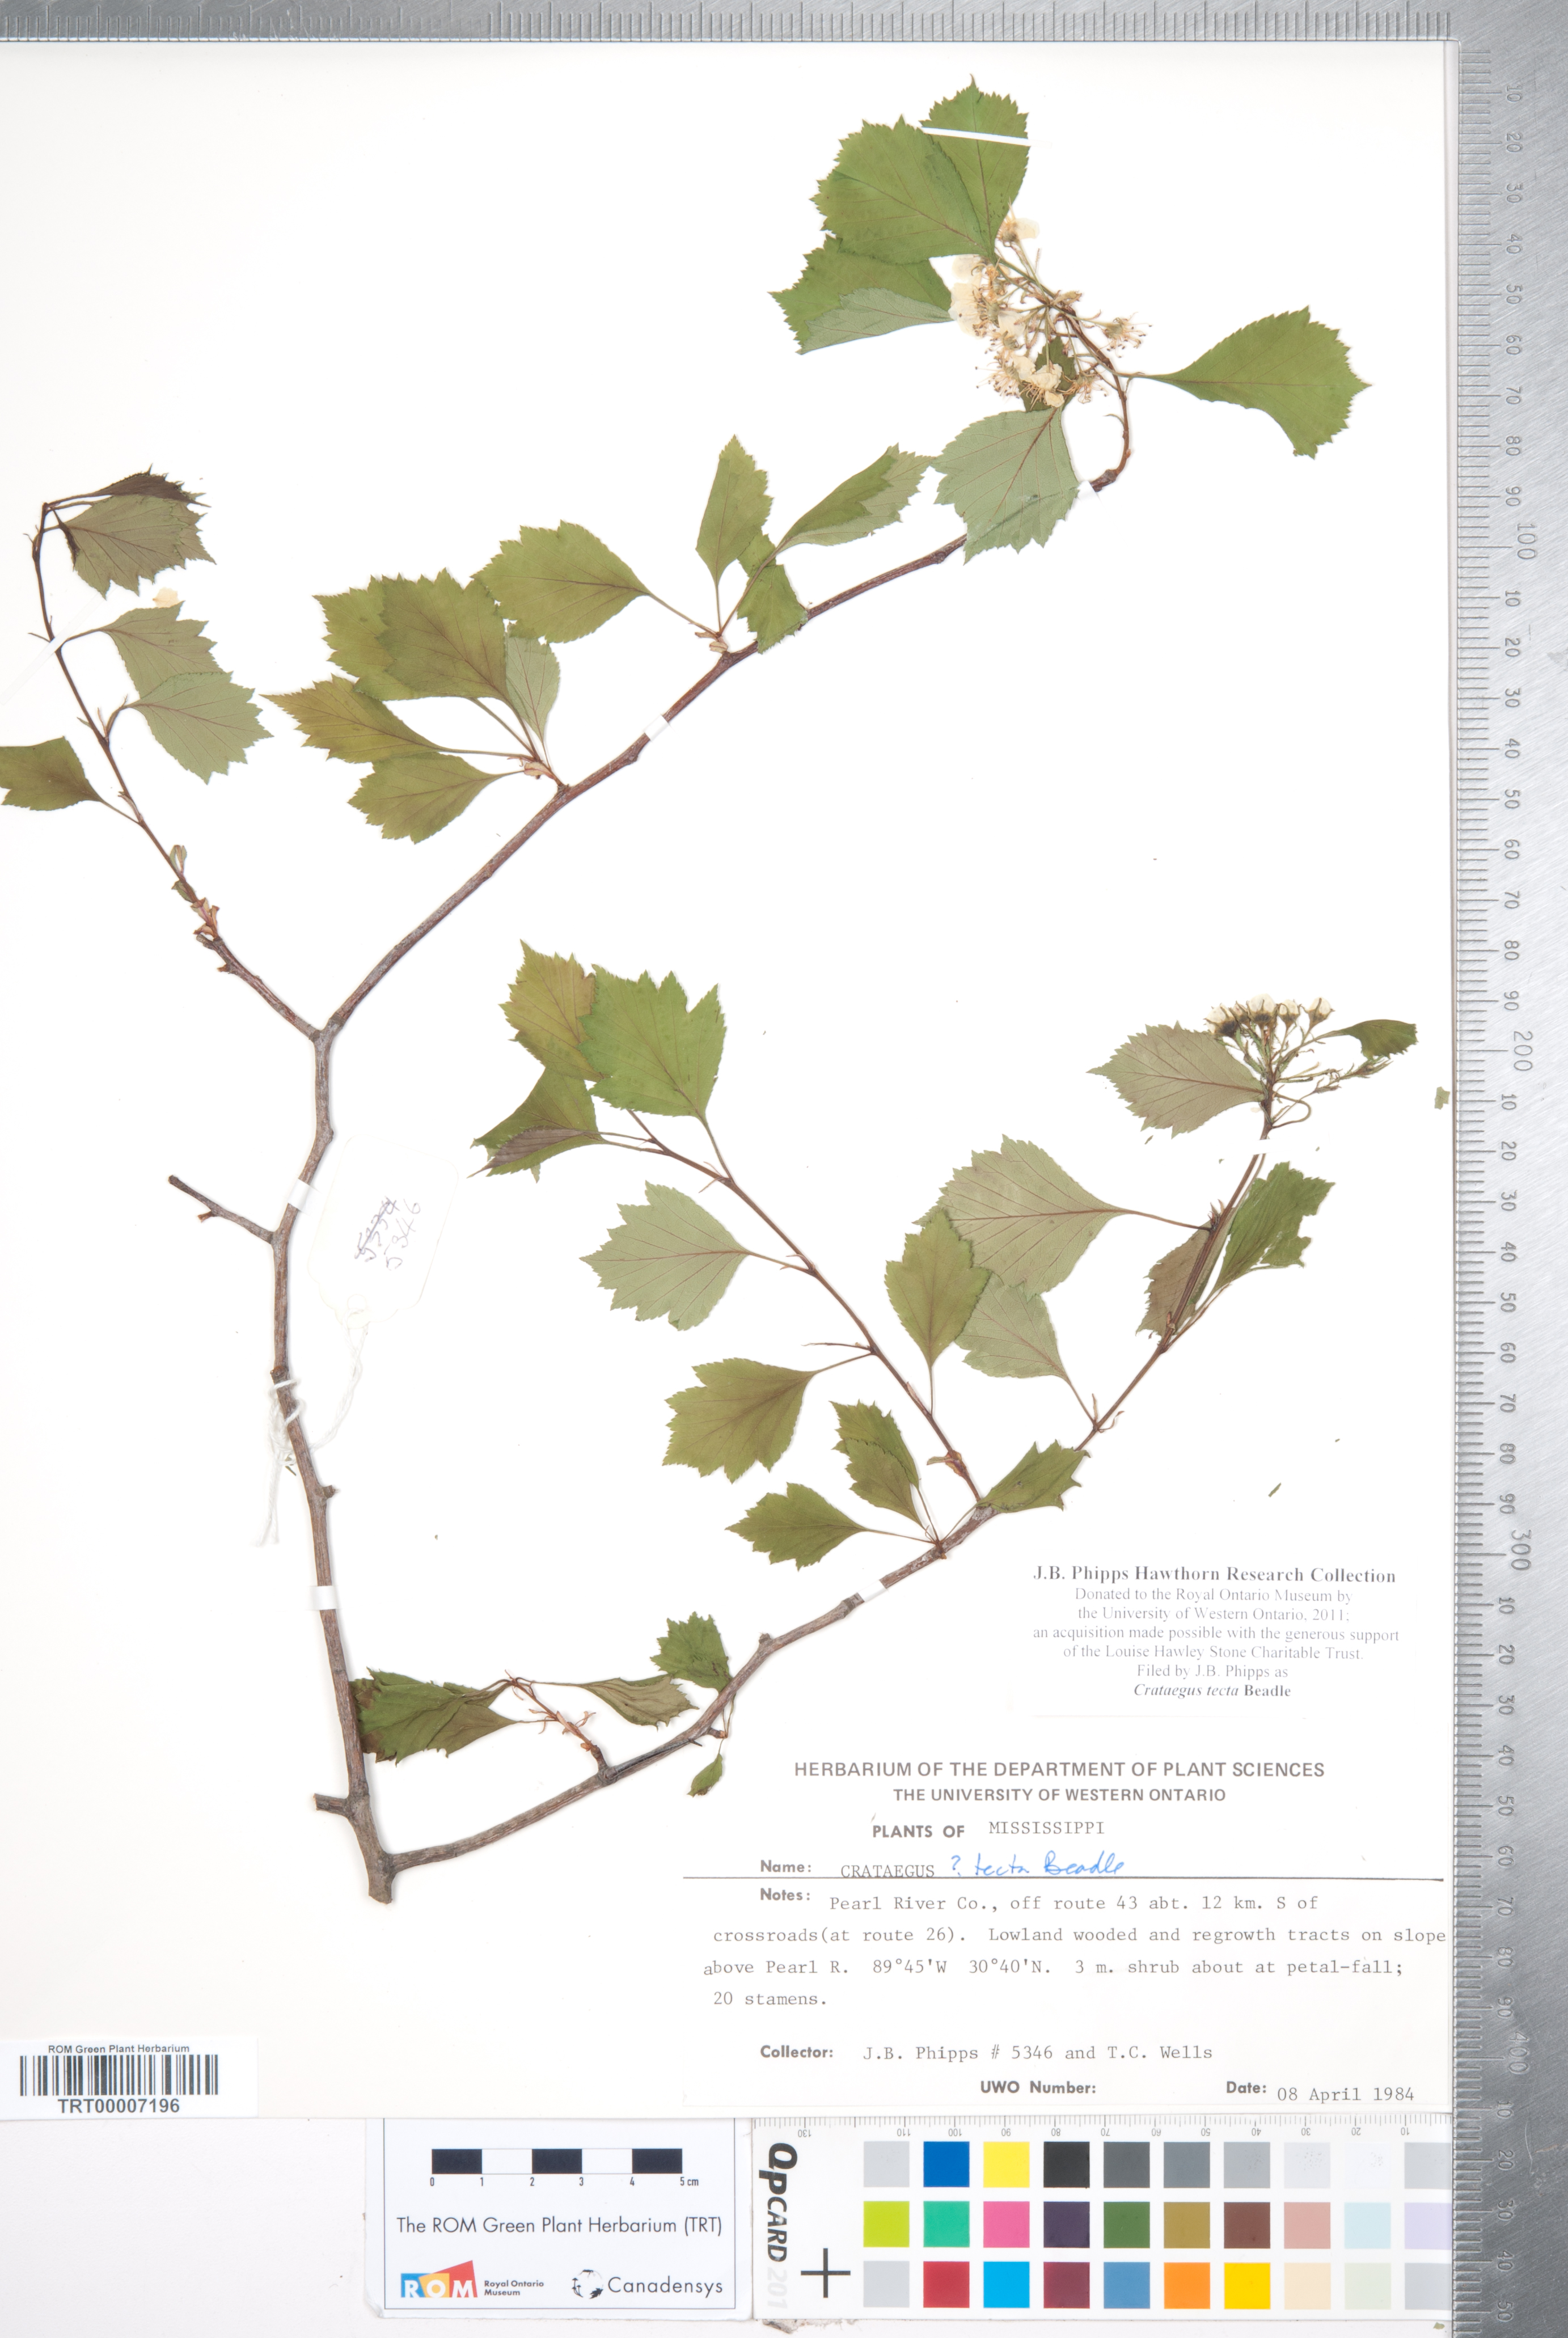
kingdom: Plantae
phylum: Tracheophyta
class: Magnoliopsida
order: Rosales
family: Rosaceae
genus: Crataegus
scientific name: Crataegus pulcherrima
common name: Beautiful hawthorn
